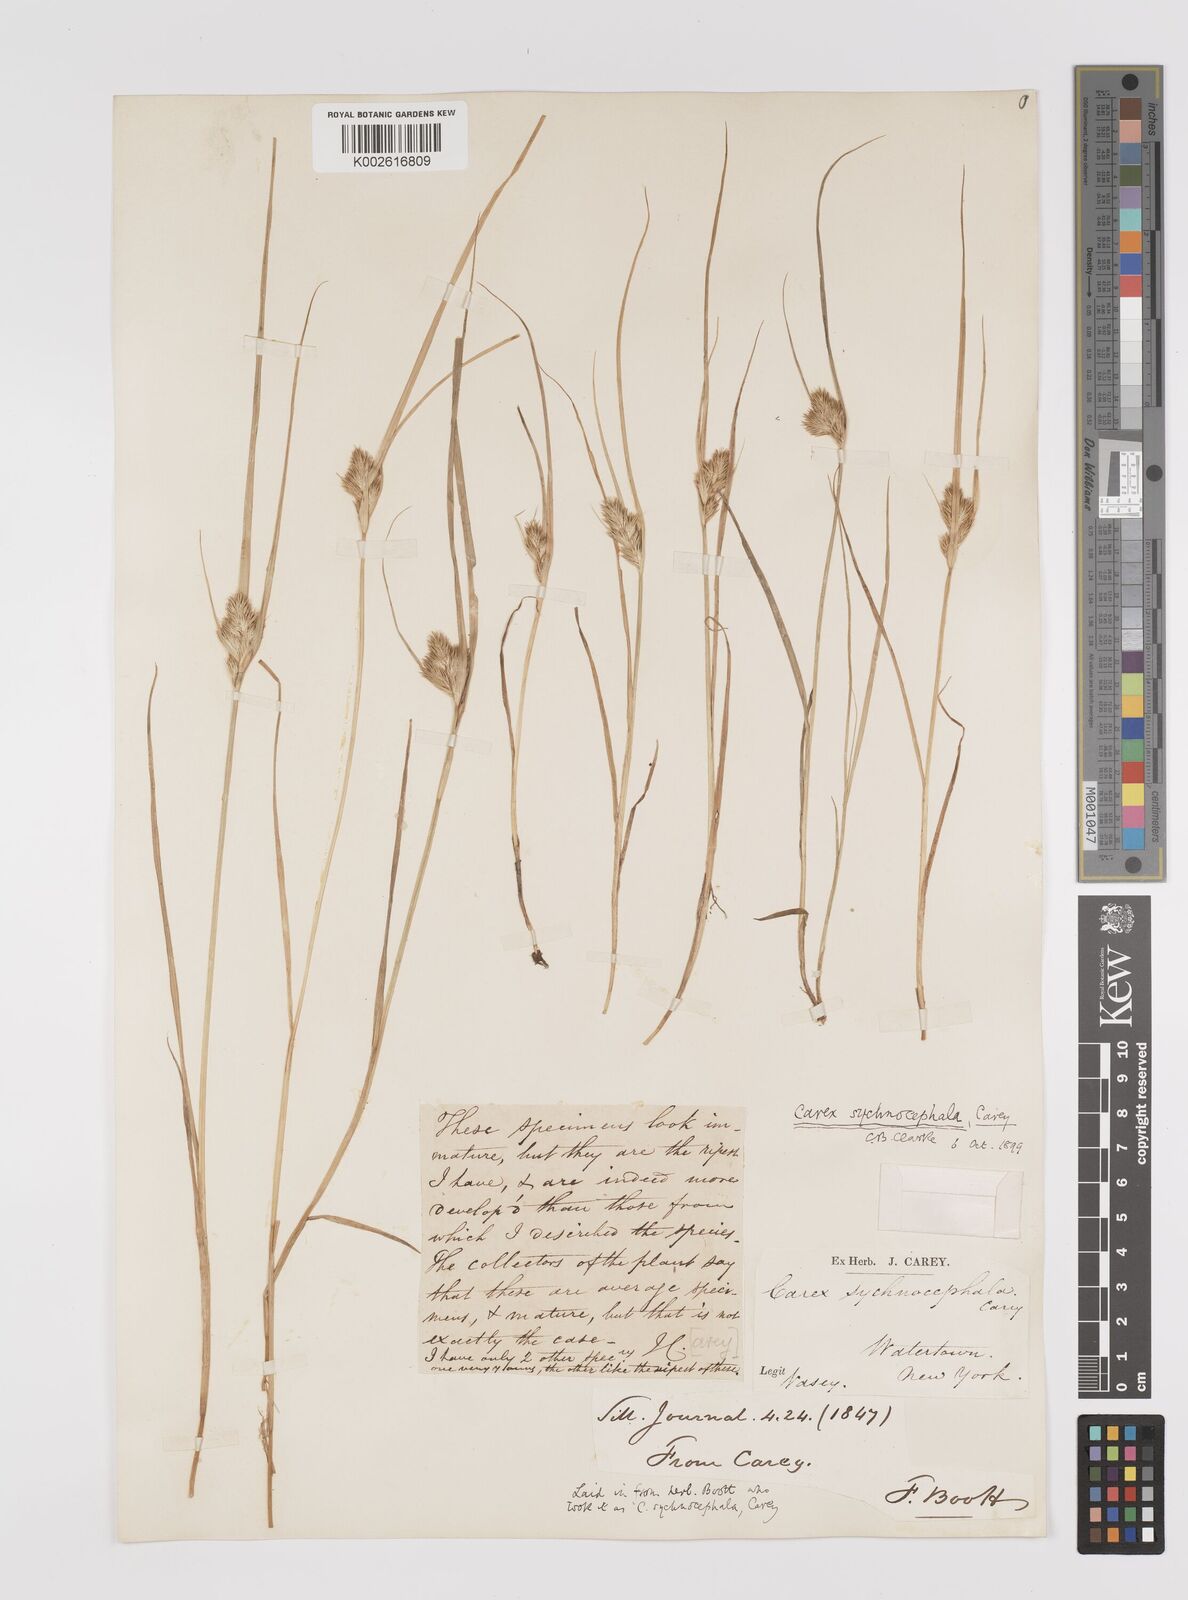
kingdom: Plantae
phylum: Tracheophyta
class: Liliopsida
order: Poales
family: Cyperaceae
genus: Carex
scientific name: Carex sychnocephala
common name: Dense long-beaked sedge
